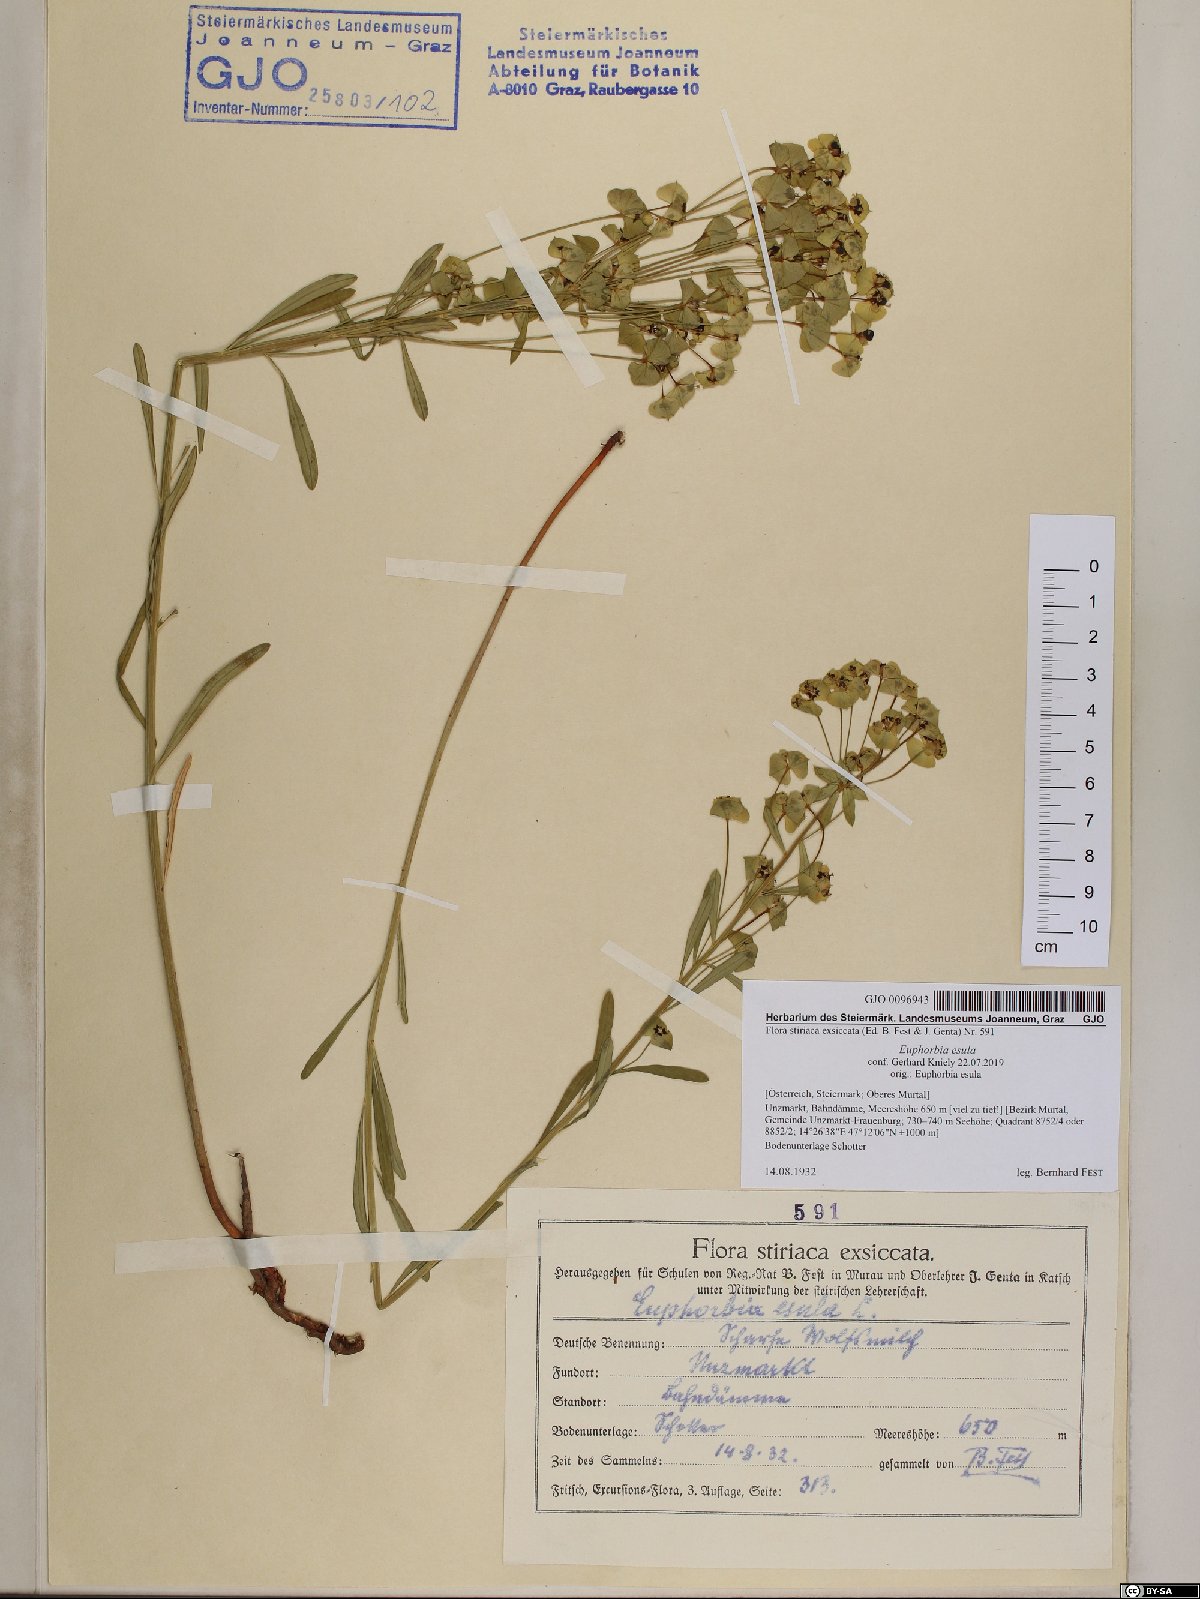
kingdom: Plantae
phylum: Tracheophyta
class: Magnoliopsida
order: Malpighiales
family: Euphorbiaceae
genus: Euphorbia
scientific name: Euphorbia esula
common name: Leafy spurge
